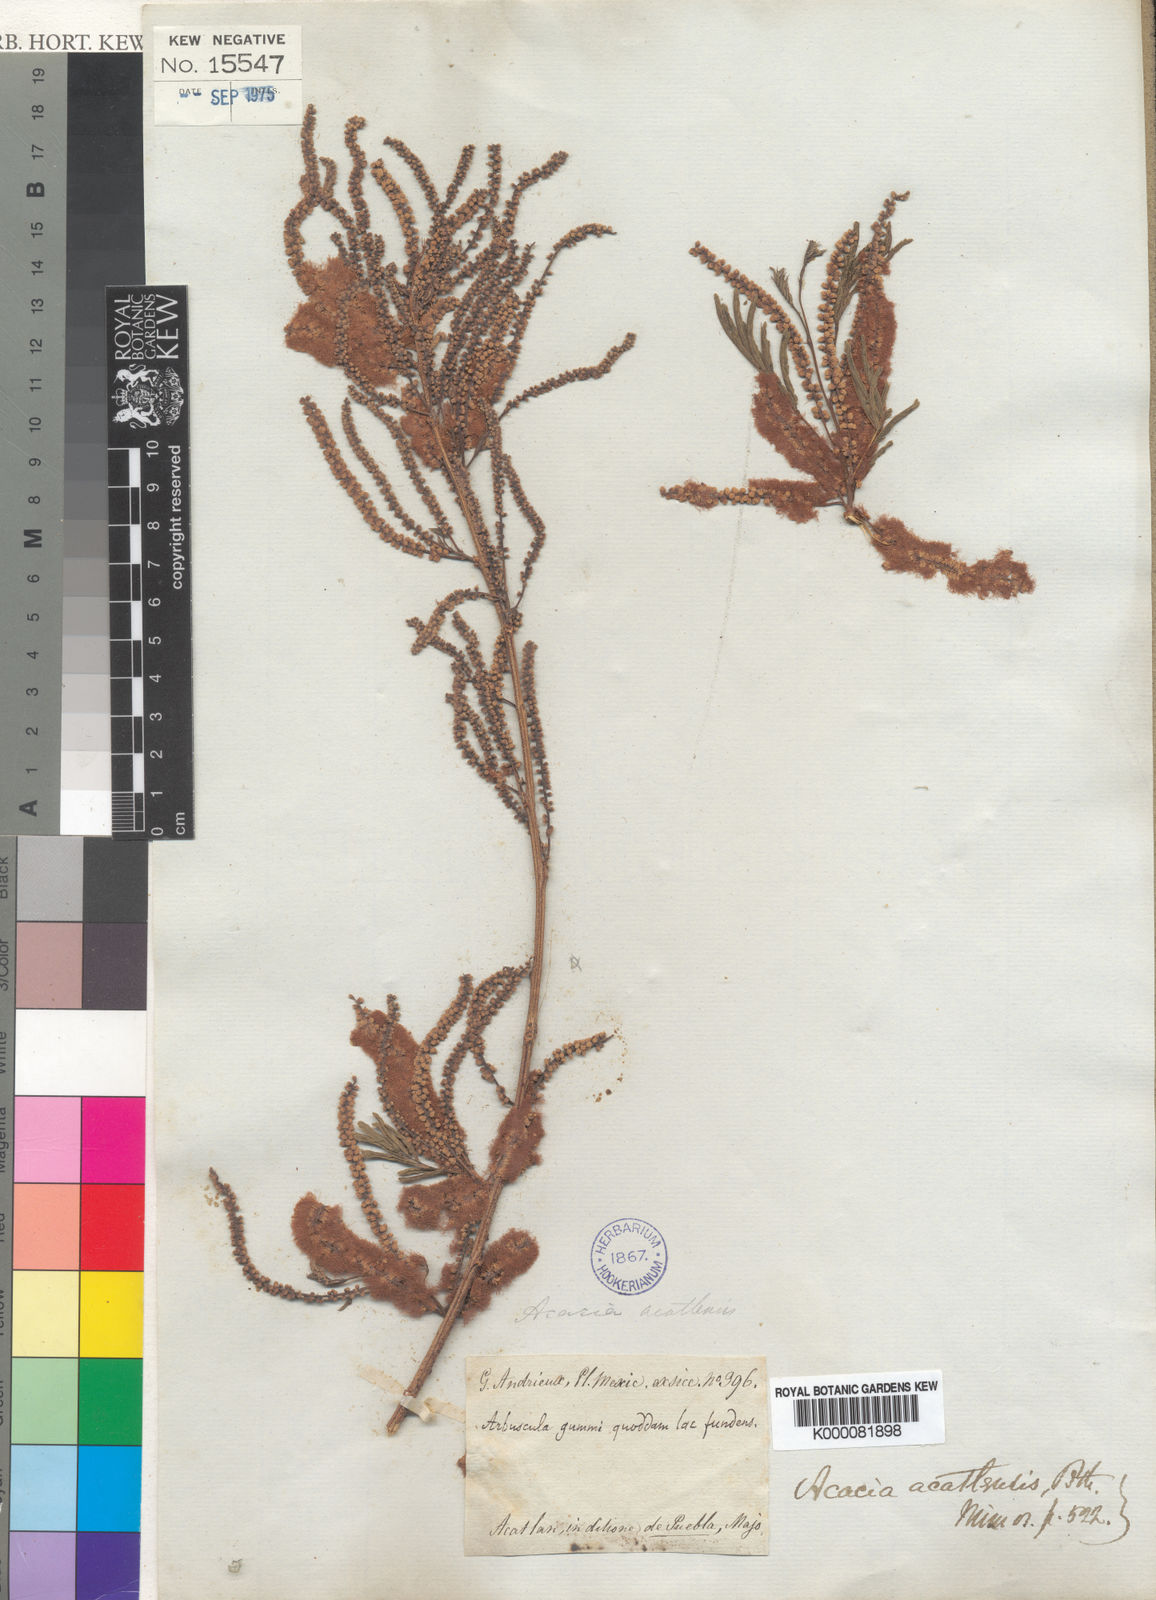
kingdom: Plantae
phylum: Tracheophyta
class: Magnoliopsida
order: Fabales
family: Fabaceae
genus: Mariosousa
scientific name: Mariosousa acatlensis
